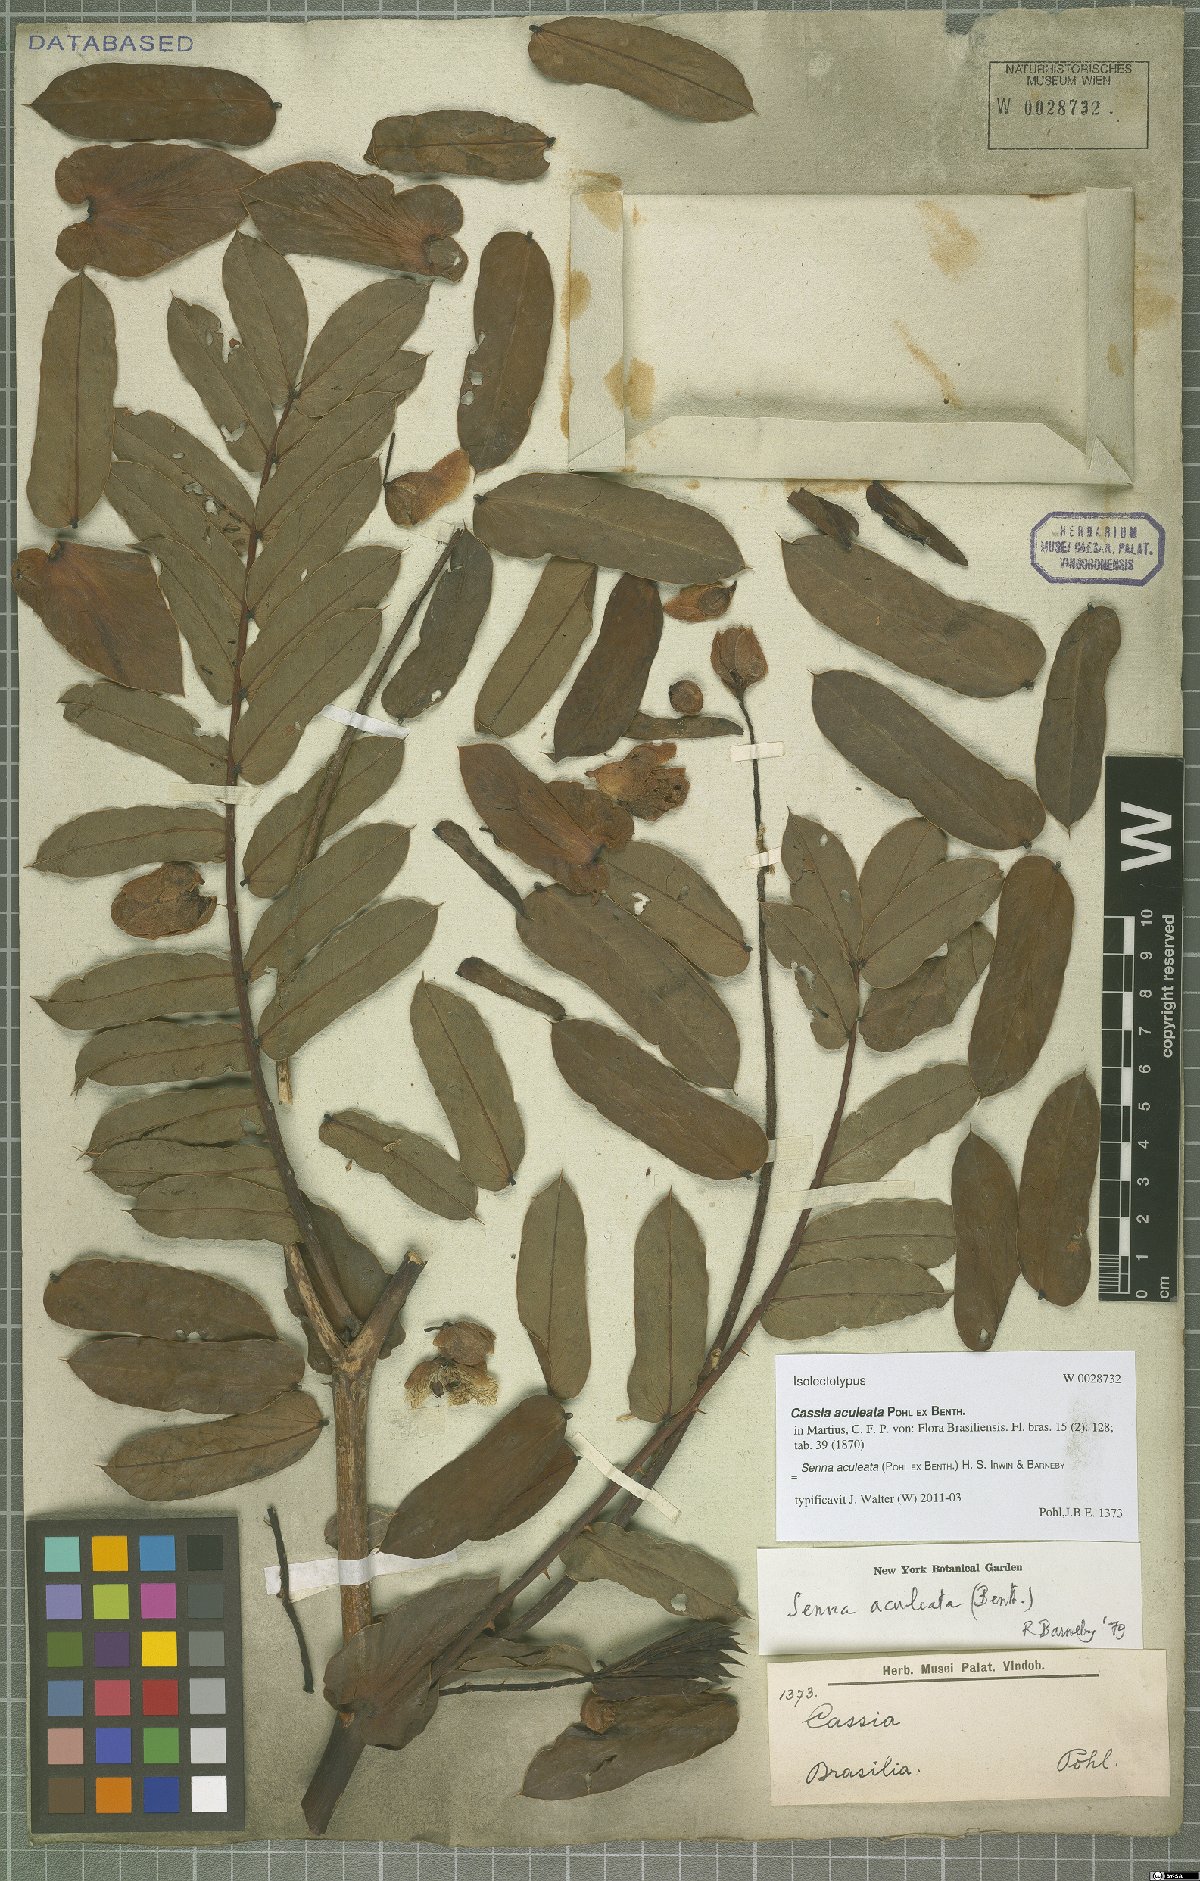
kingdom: Plantae
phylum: Tracheophyta
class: Magnoliopsida
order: Fabales
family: Fabaceae
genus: Senna
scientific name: Senna aculeata
